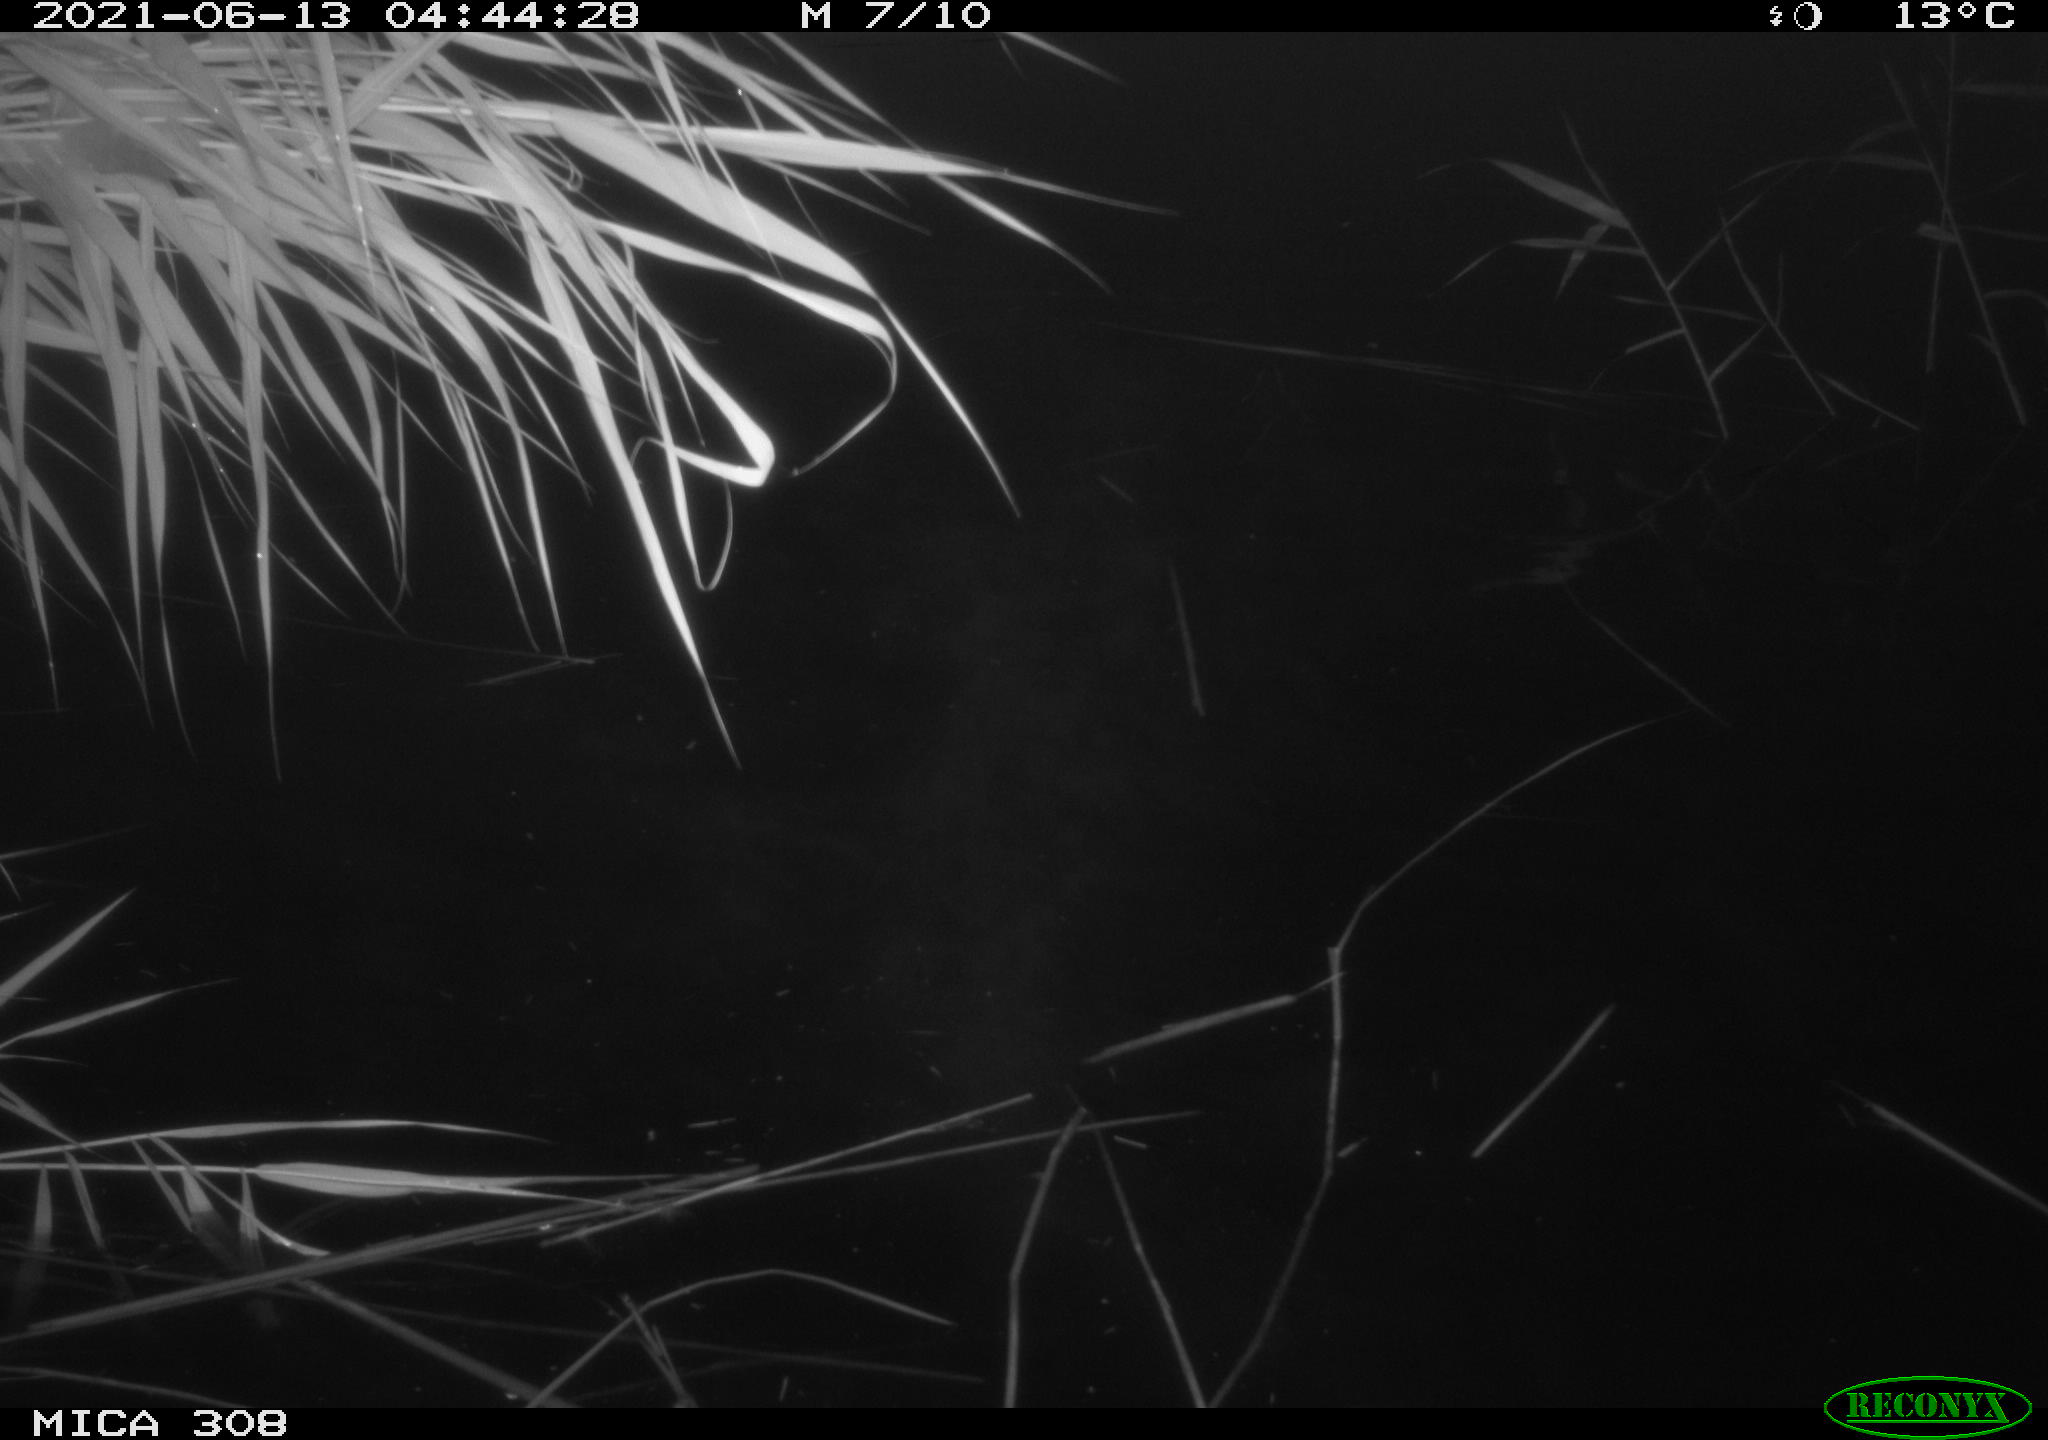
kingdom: Animalia
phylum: Chordata
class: Aves
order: Anseriformes
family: Anatidae
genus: Anas
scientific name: Anas platyrhynchos
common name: Mallard
